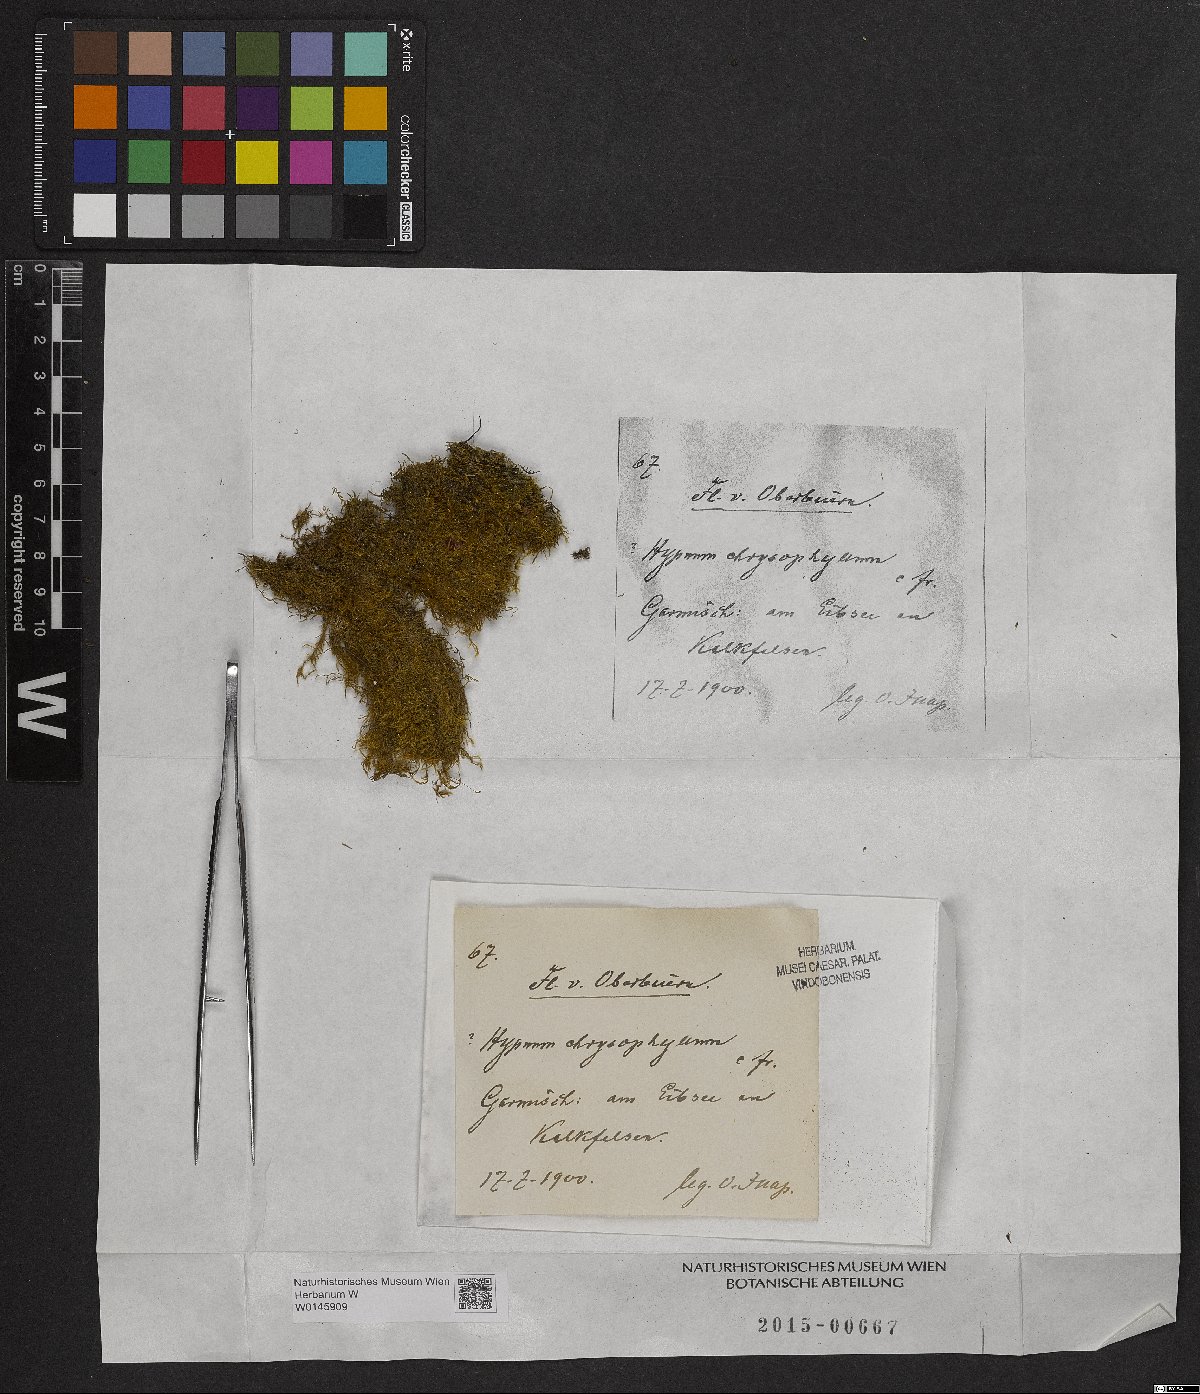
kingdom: Plantae
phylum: Bryophyta
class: Bryopsida
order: Hypnales
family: Amblystegiaceae
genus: Campylium
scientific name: Campylium chrysophyllum
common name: Goldenleaf campylium moss
